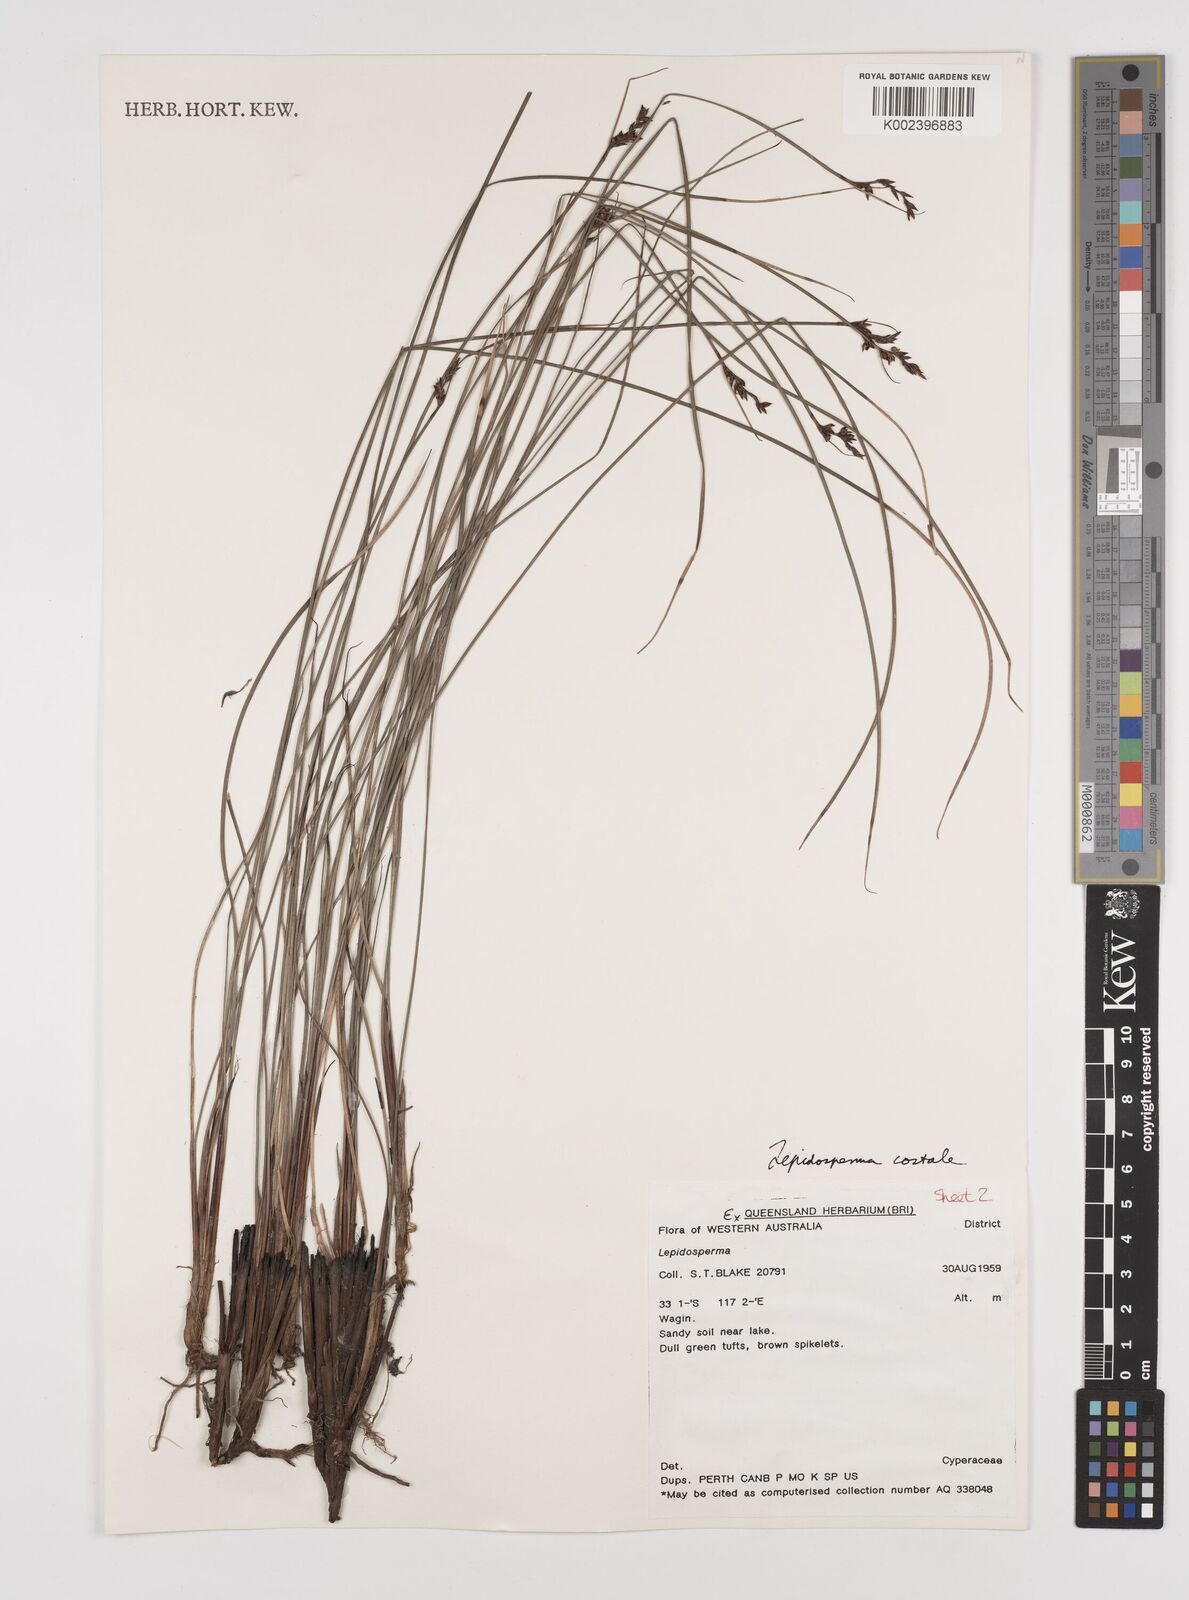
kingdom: Plantae
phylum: Tracheophyta
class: Liliopsida
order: Poales
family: Cyperaceae
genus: Lepidosperma
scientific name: Lepidosperma costale
